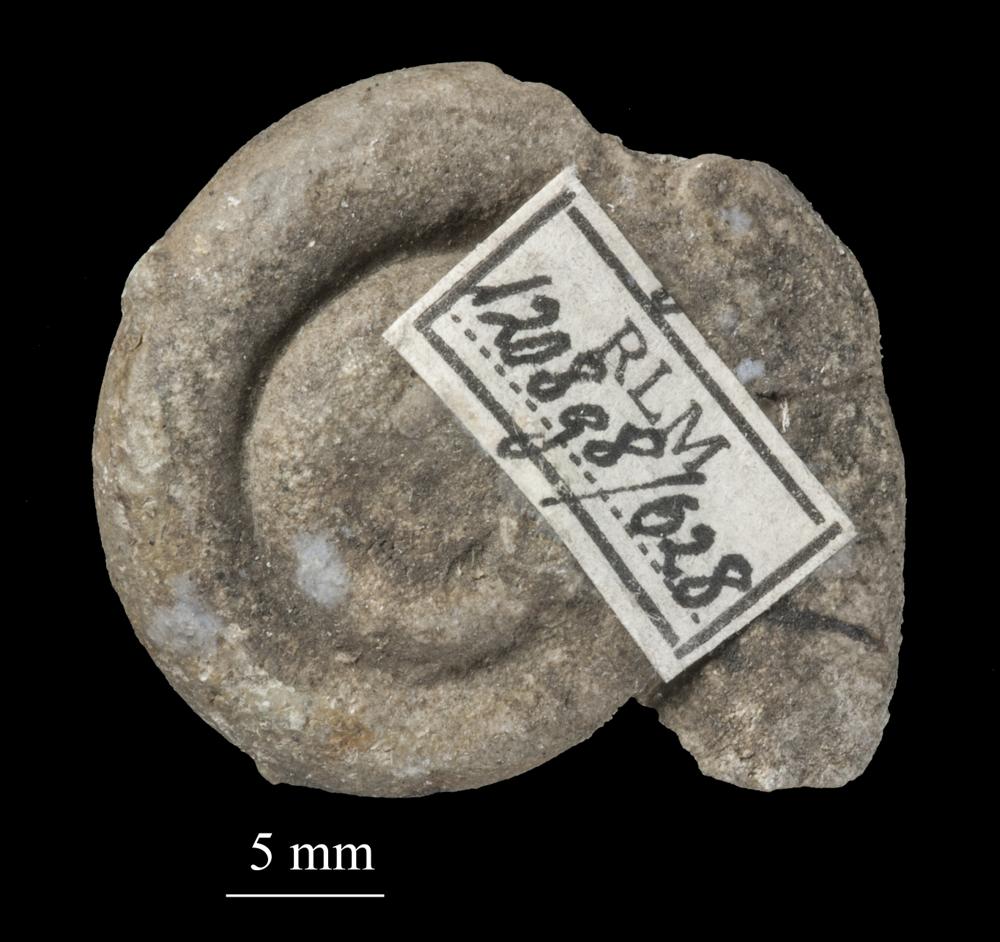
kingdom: Animalia
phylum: Mollusca
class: Gastropoda
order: Neogastropoda
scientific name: Neogastropoda
